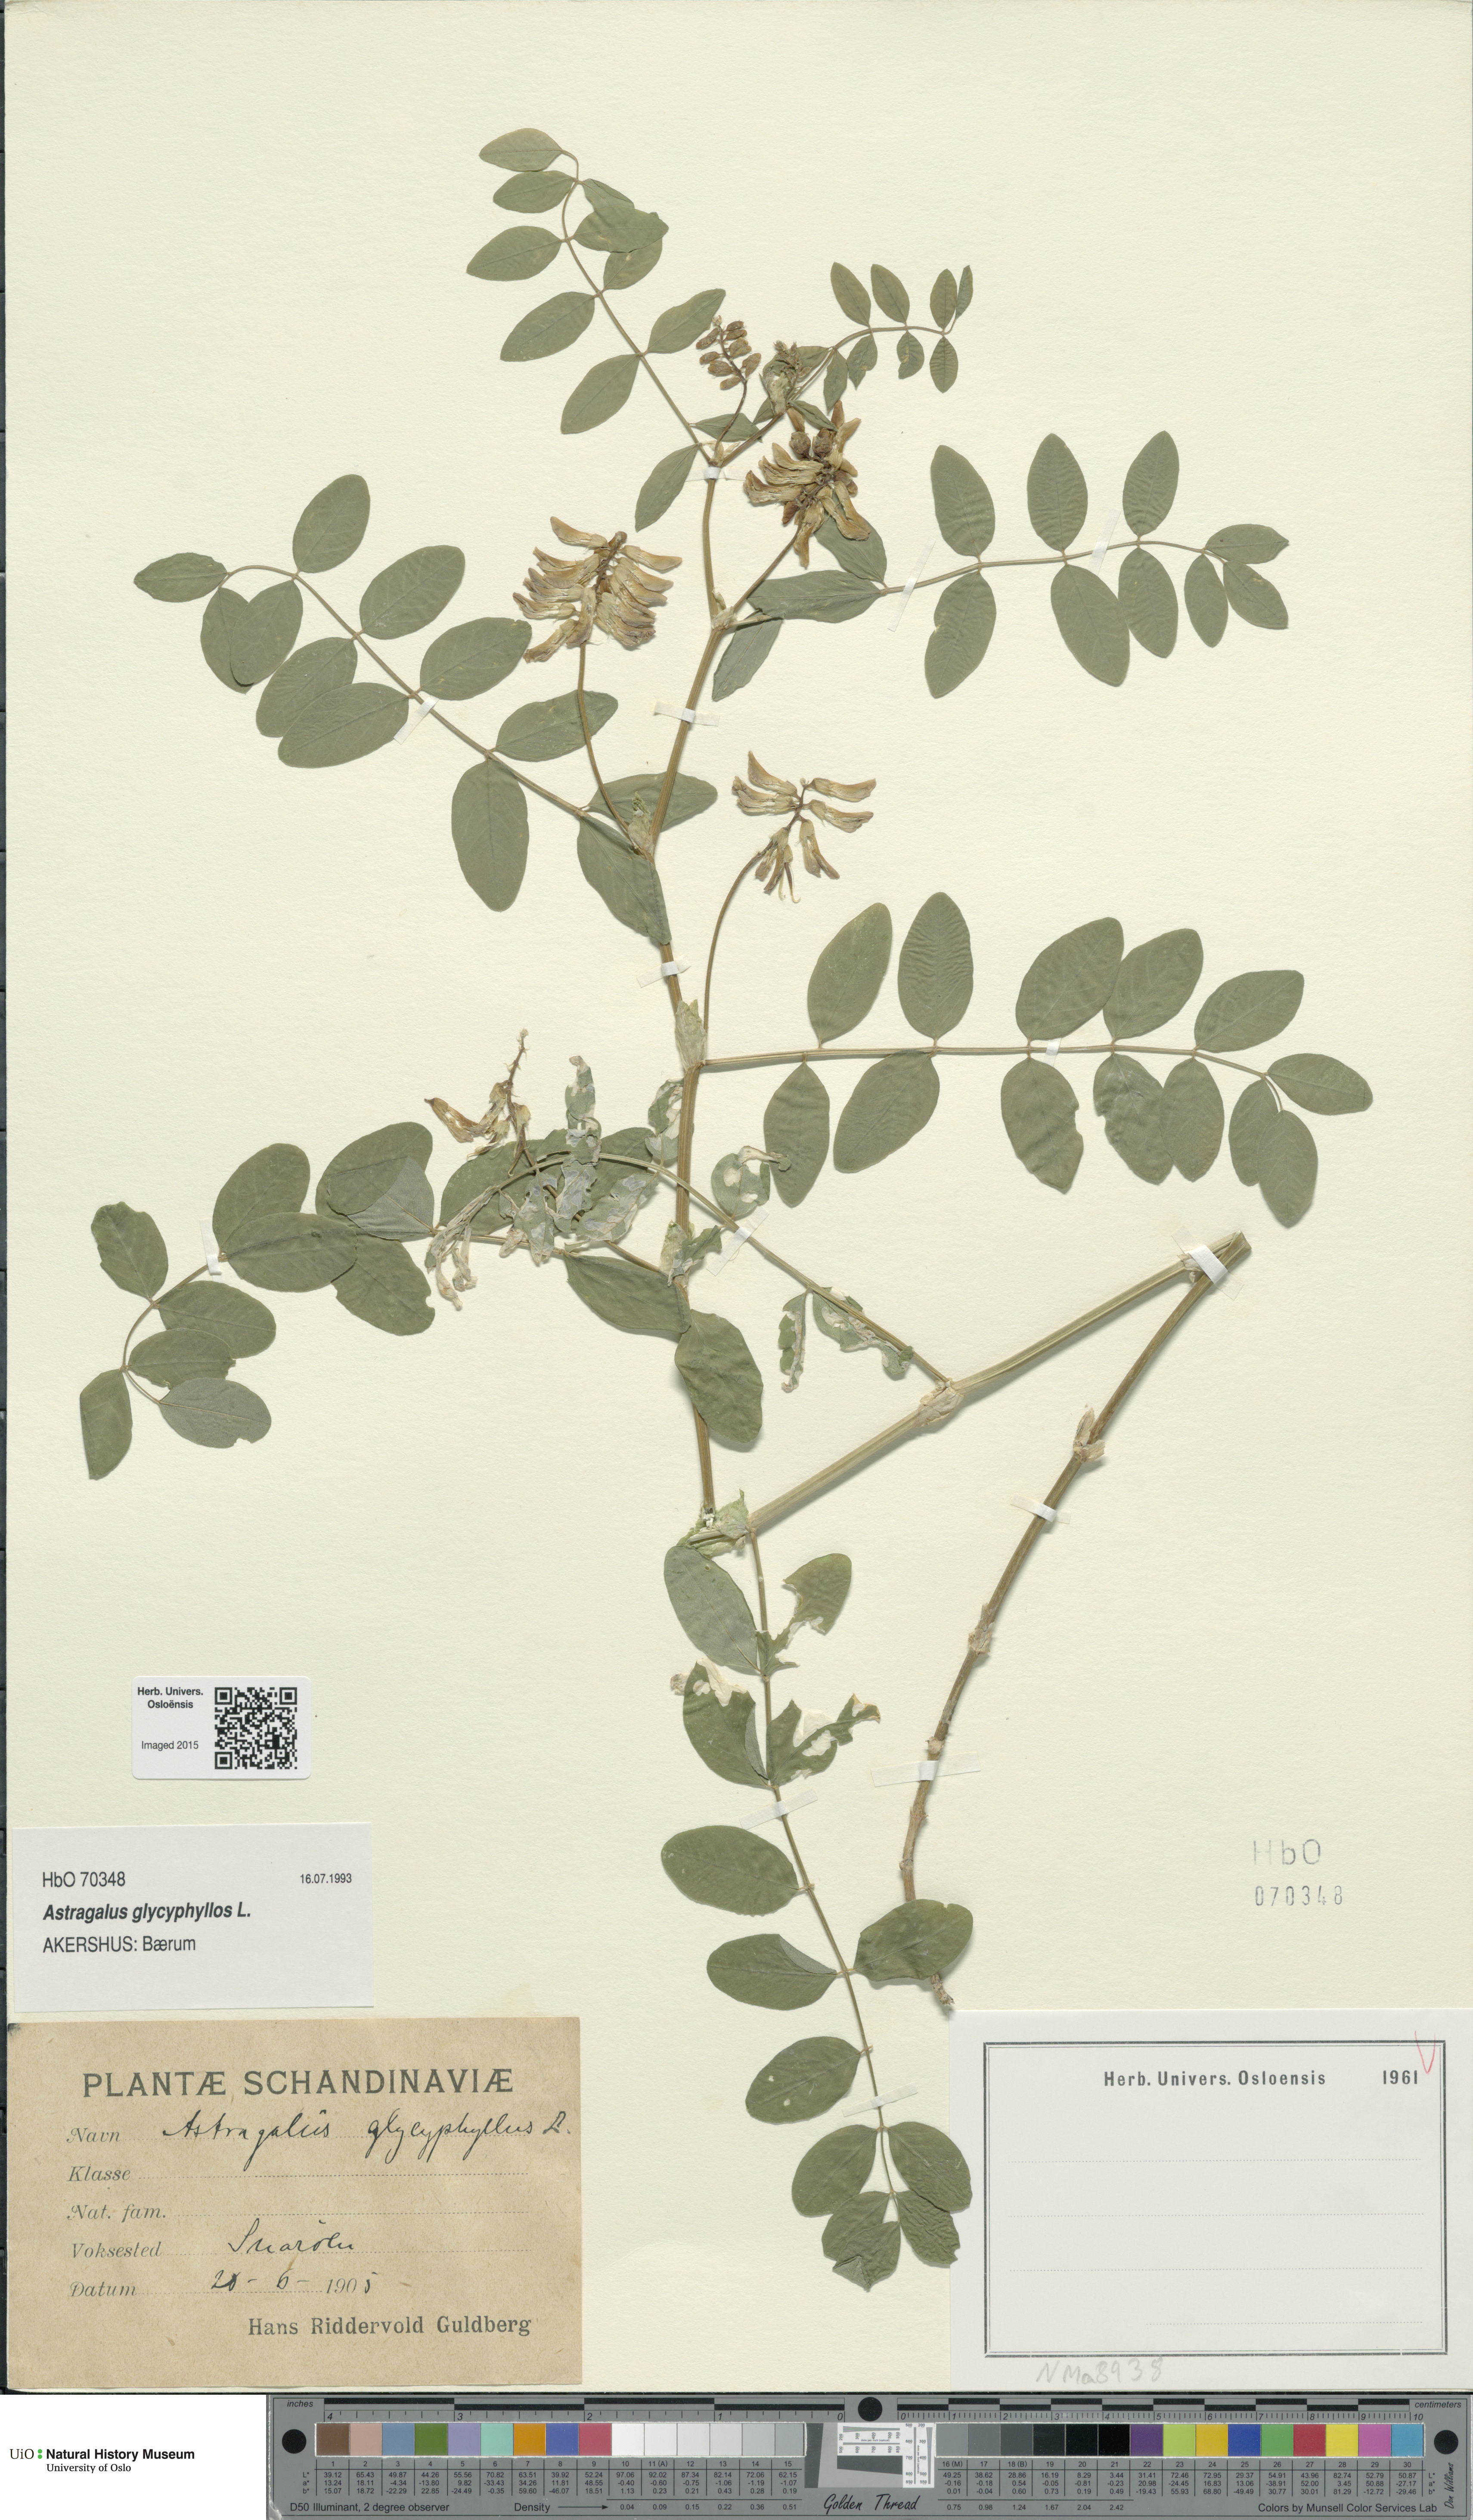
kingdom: Plantae
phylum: Tracheophyta
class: Magnoliopsida
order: Fabales
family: Fabaceae
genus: Astragalus
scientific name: Astragalus glycyphyllos
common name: Wild liquorice
